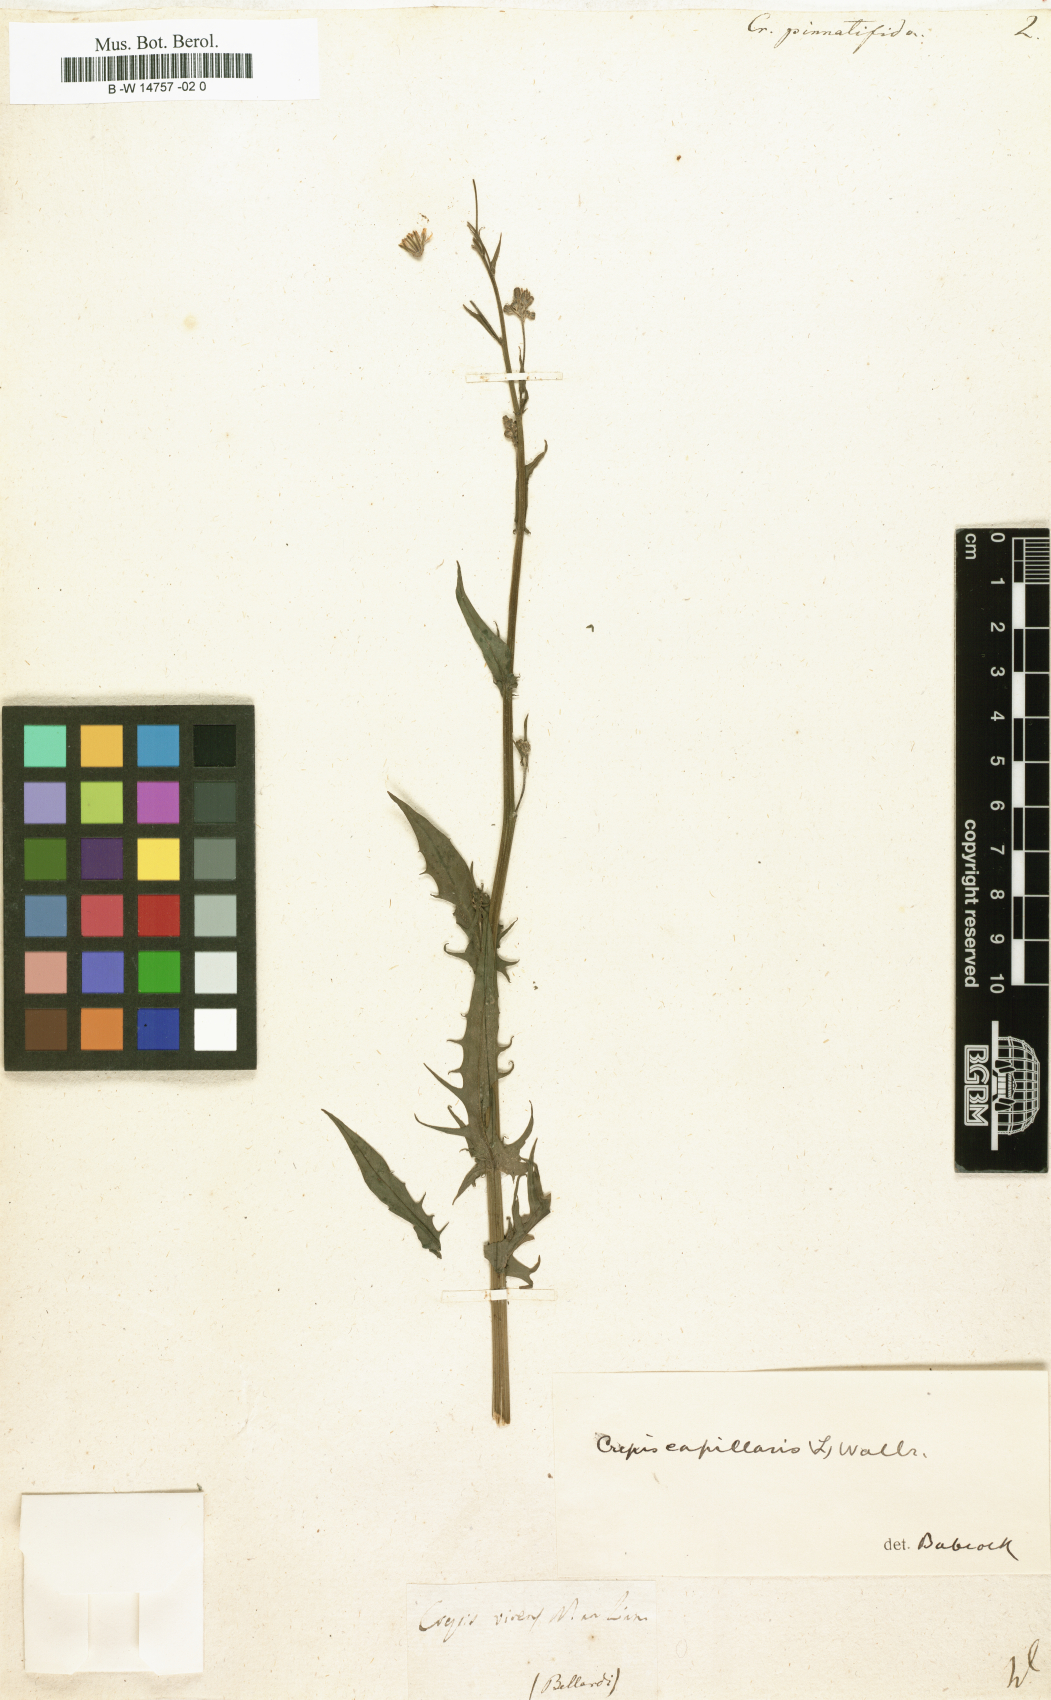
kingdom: Plantae
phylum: Tracheophyta
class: Magnoliopsida
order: Asterales
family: Asteraceae
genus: Crepis
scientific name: Crepis
